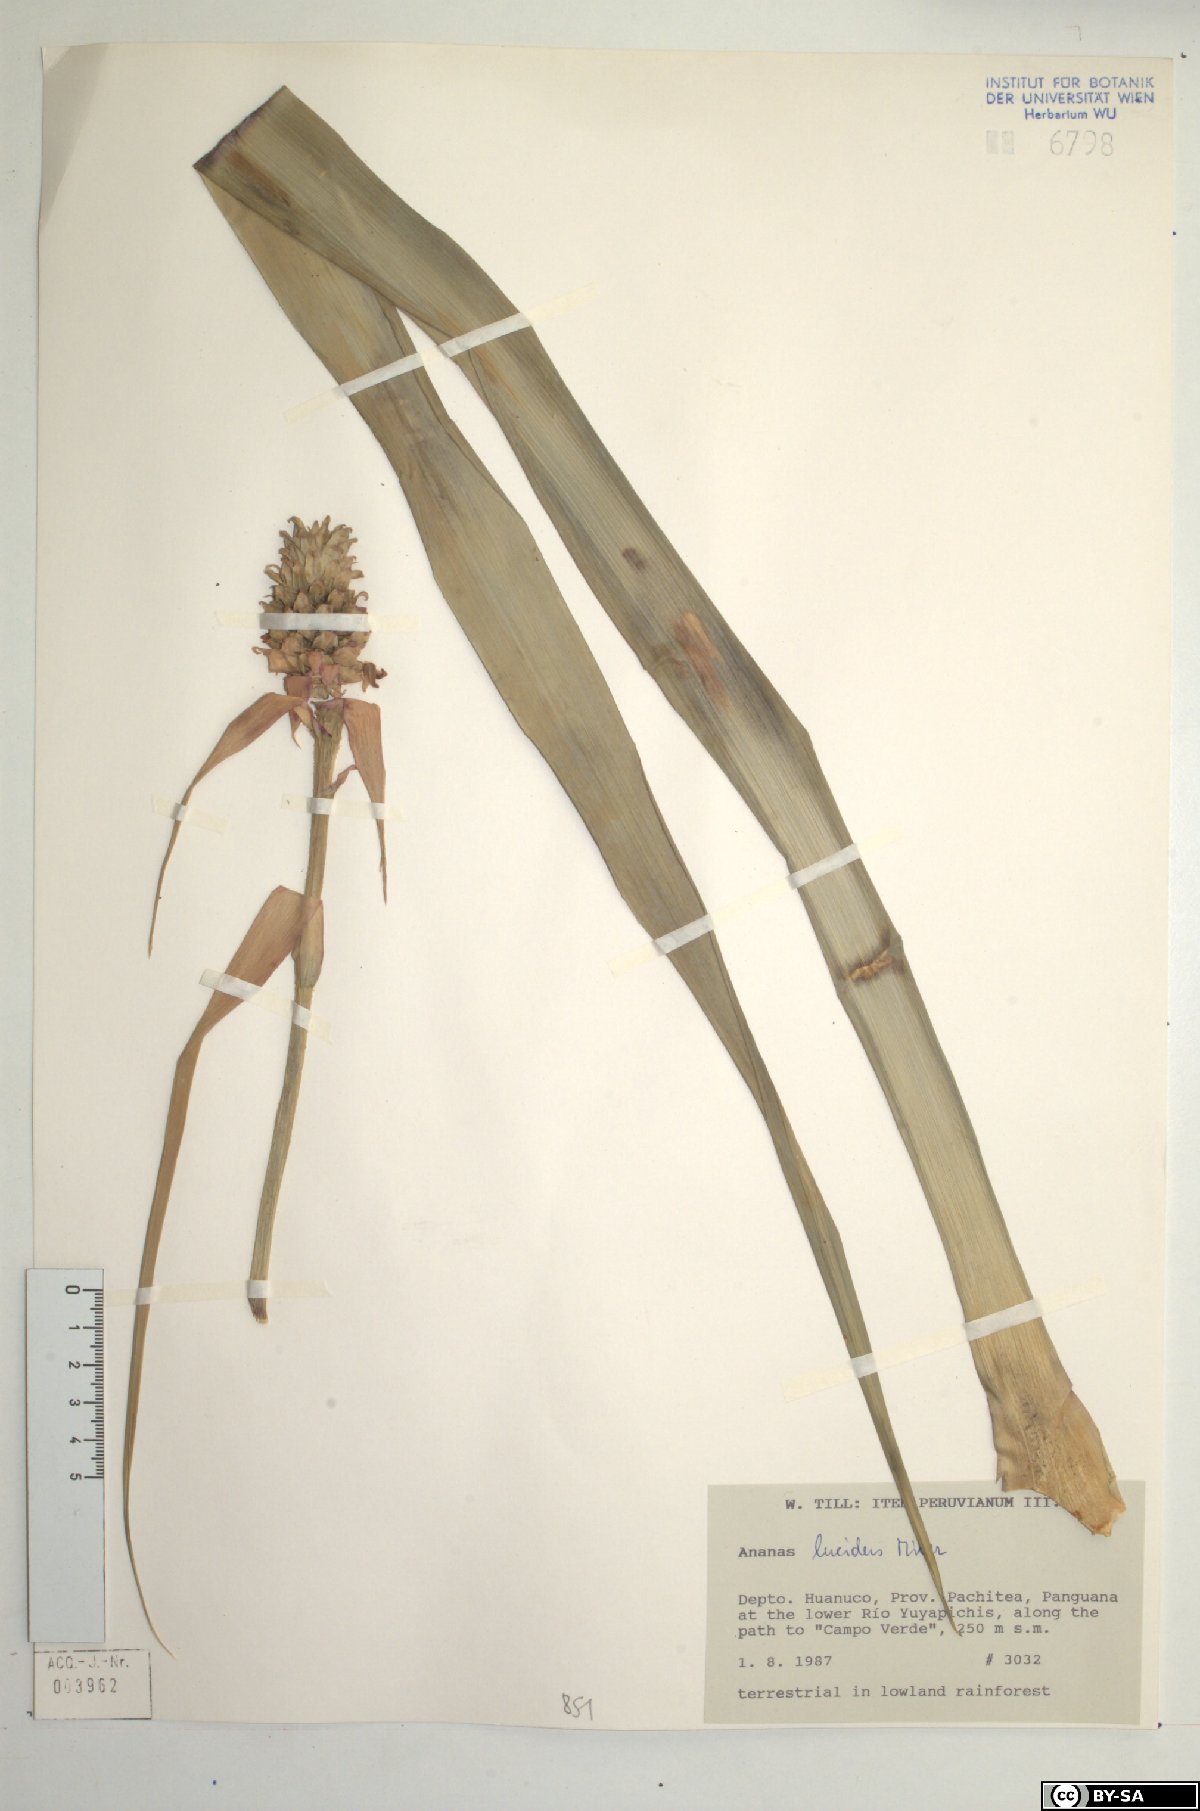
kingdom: Plantae
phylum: Tracheophyta
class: Liliopsida
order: Poales
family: Bromeliaceae
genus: Ananas
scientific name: Ananas comosus
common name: Pineapple
